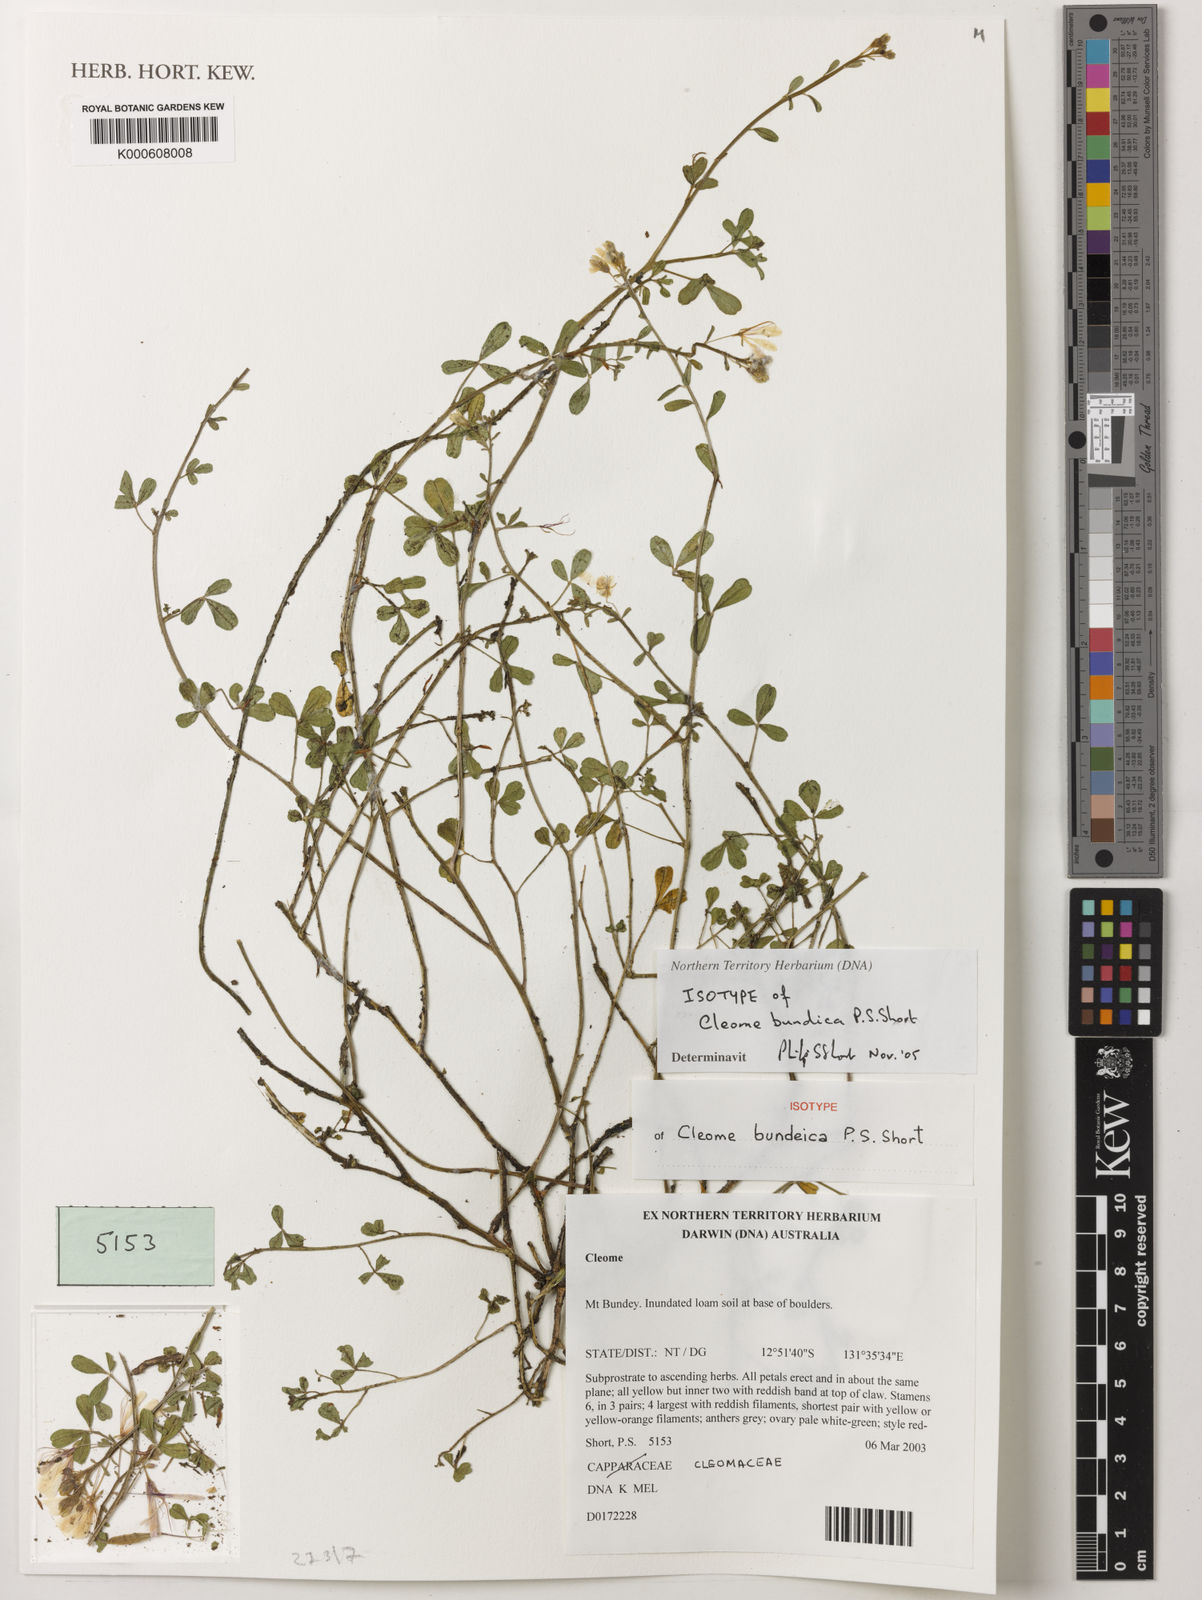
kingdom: Plantae
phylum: Tracheophyta
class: Magnoliopsida
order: Brassicales
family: Cleomaceae
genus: Arivela
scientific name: Arivela bundeica
